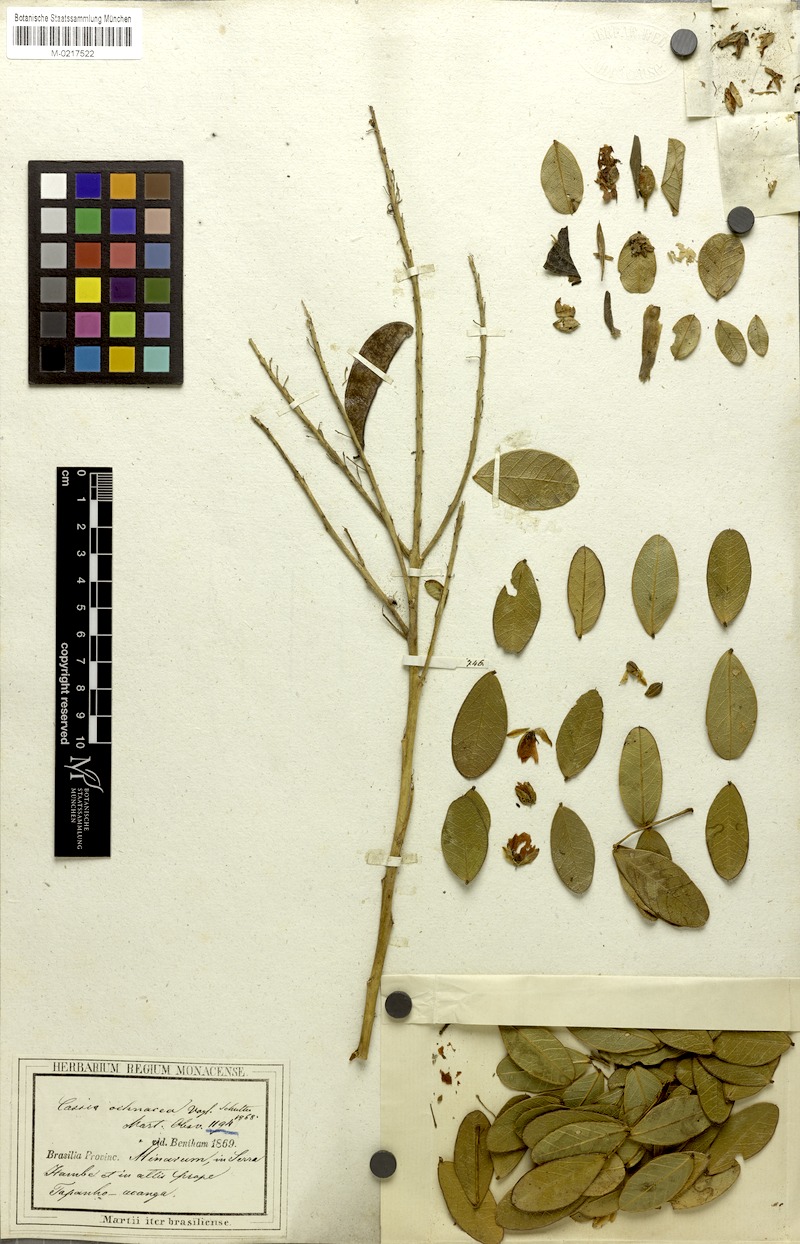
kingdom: Plantae
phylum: Tracheophyta
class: Magnoliopsida
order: Fabales
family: Fabaceae
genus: Chamaecrista
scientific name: Chamaecrista ochnacea
